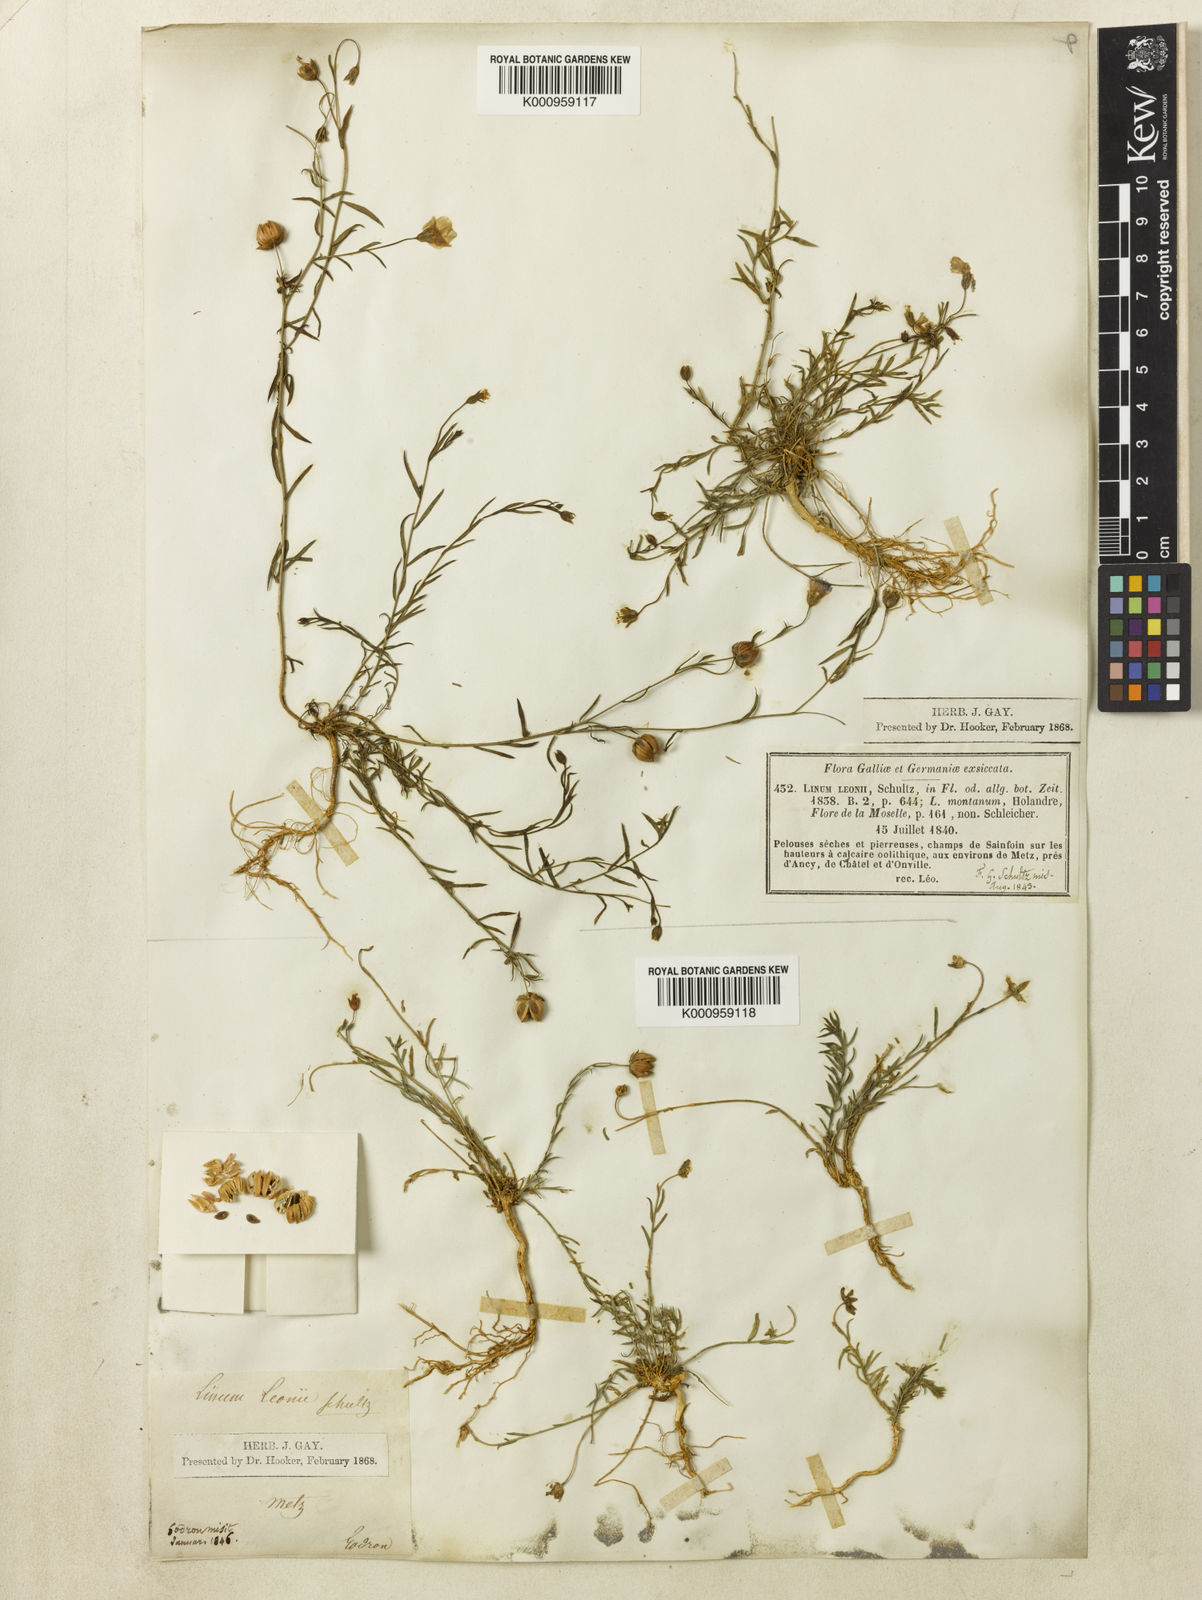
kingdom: Plantae
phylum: Tracheophyta
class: Magnoliopsida
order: Malpighiales
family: Linaceae
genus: Linum
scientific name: Linum
